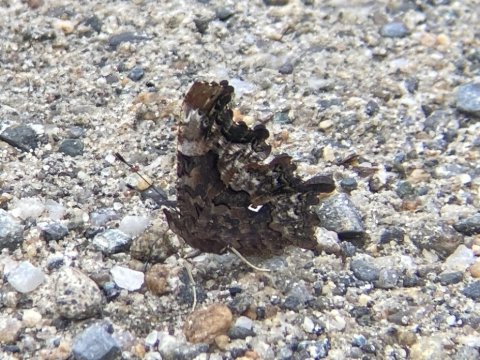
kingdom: Animalia
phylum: Arthropoda
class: Insecta
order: Lepidoptera
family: Nymphalidae
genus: Polygonia
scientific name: Polygonia faunus
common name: Green Comma
